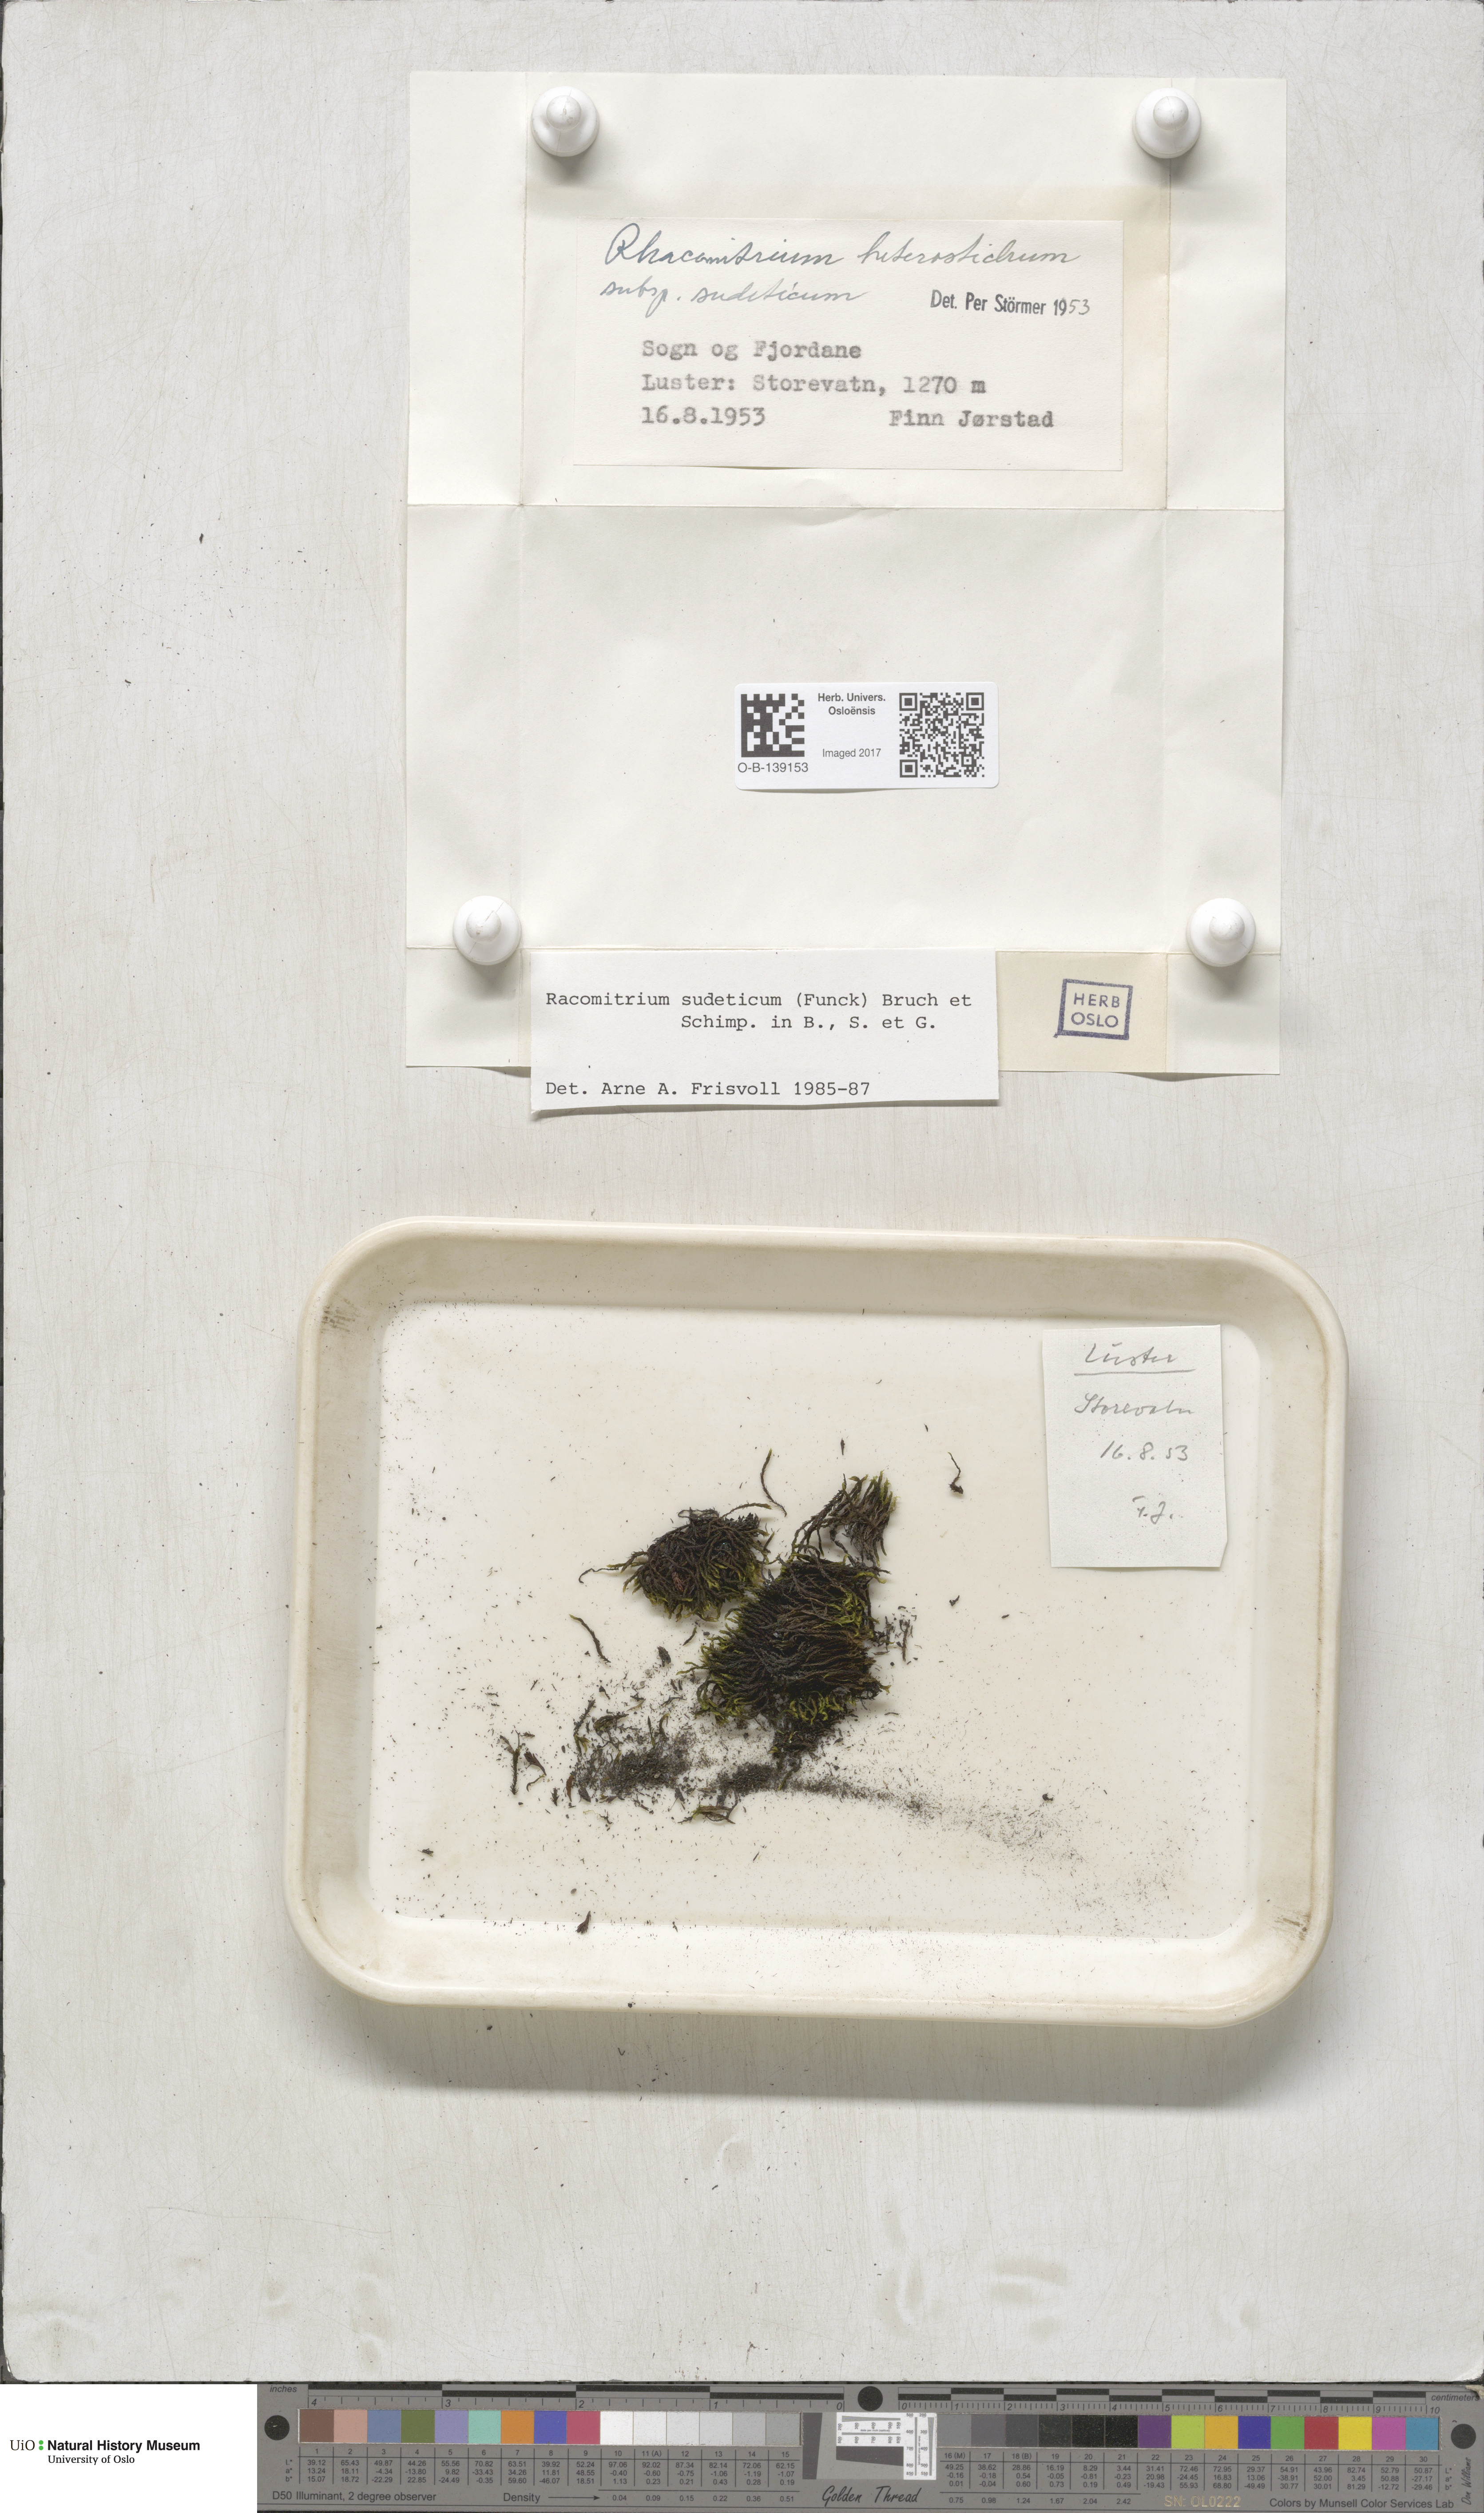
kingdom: Plantae
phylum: Bryophyta
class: Bryopsida
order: Grimmiales
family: Grimmiaceae
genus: Bucklandiella
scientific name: Bucklandiella sudetica
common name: Slender fringe-moss
